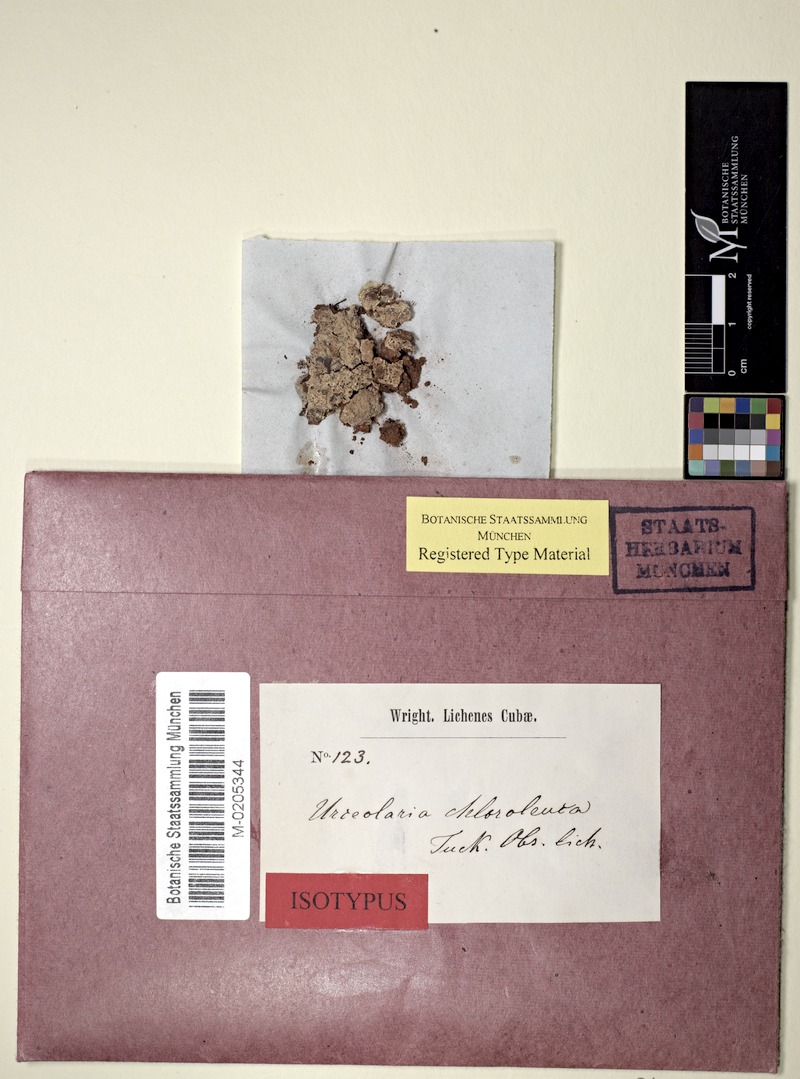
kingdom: Fungi
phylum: Ascomycota
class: Lecanoromycetes
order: Ostropales
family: Graphidaceae
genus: Diploschistes
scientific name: Diploschistes chloroleucus
